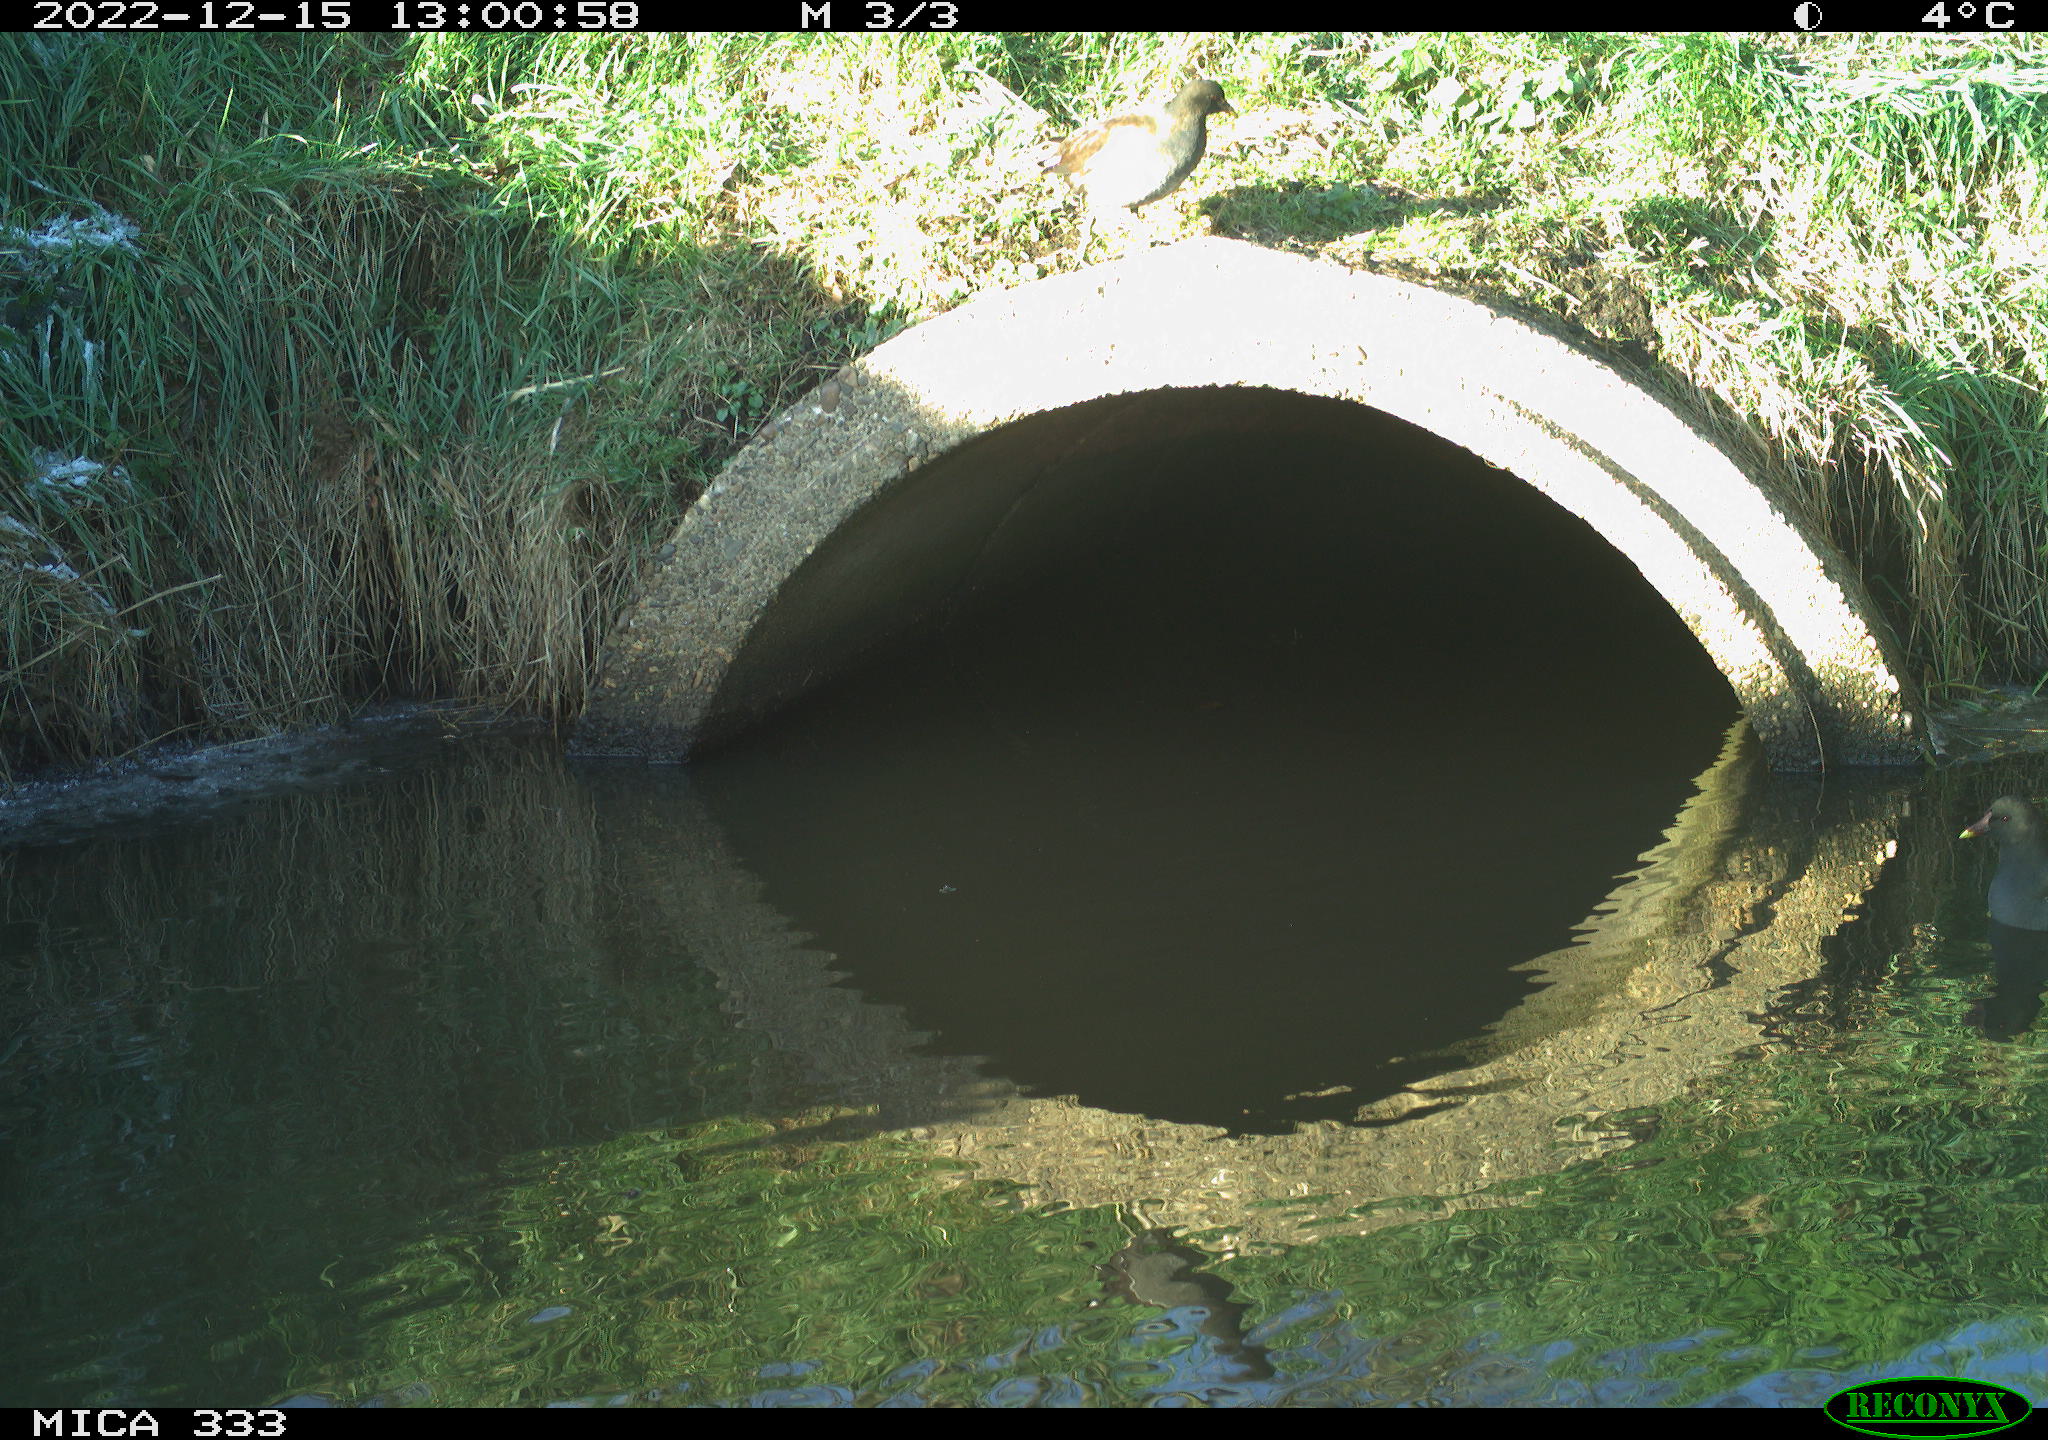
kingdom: Animalia
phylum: Chordata
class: Aves
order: Gruiformes
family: Rallidae
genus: Gallinula
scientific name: Gallinula chloropus
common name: Common moorhen
